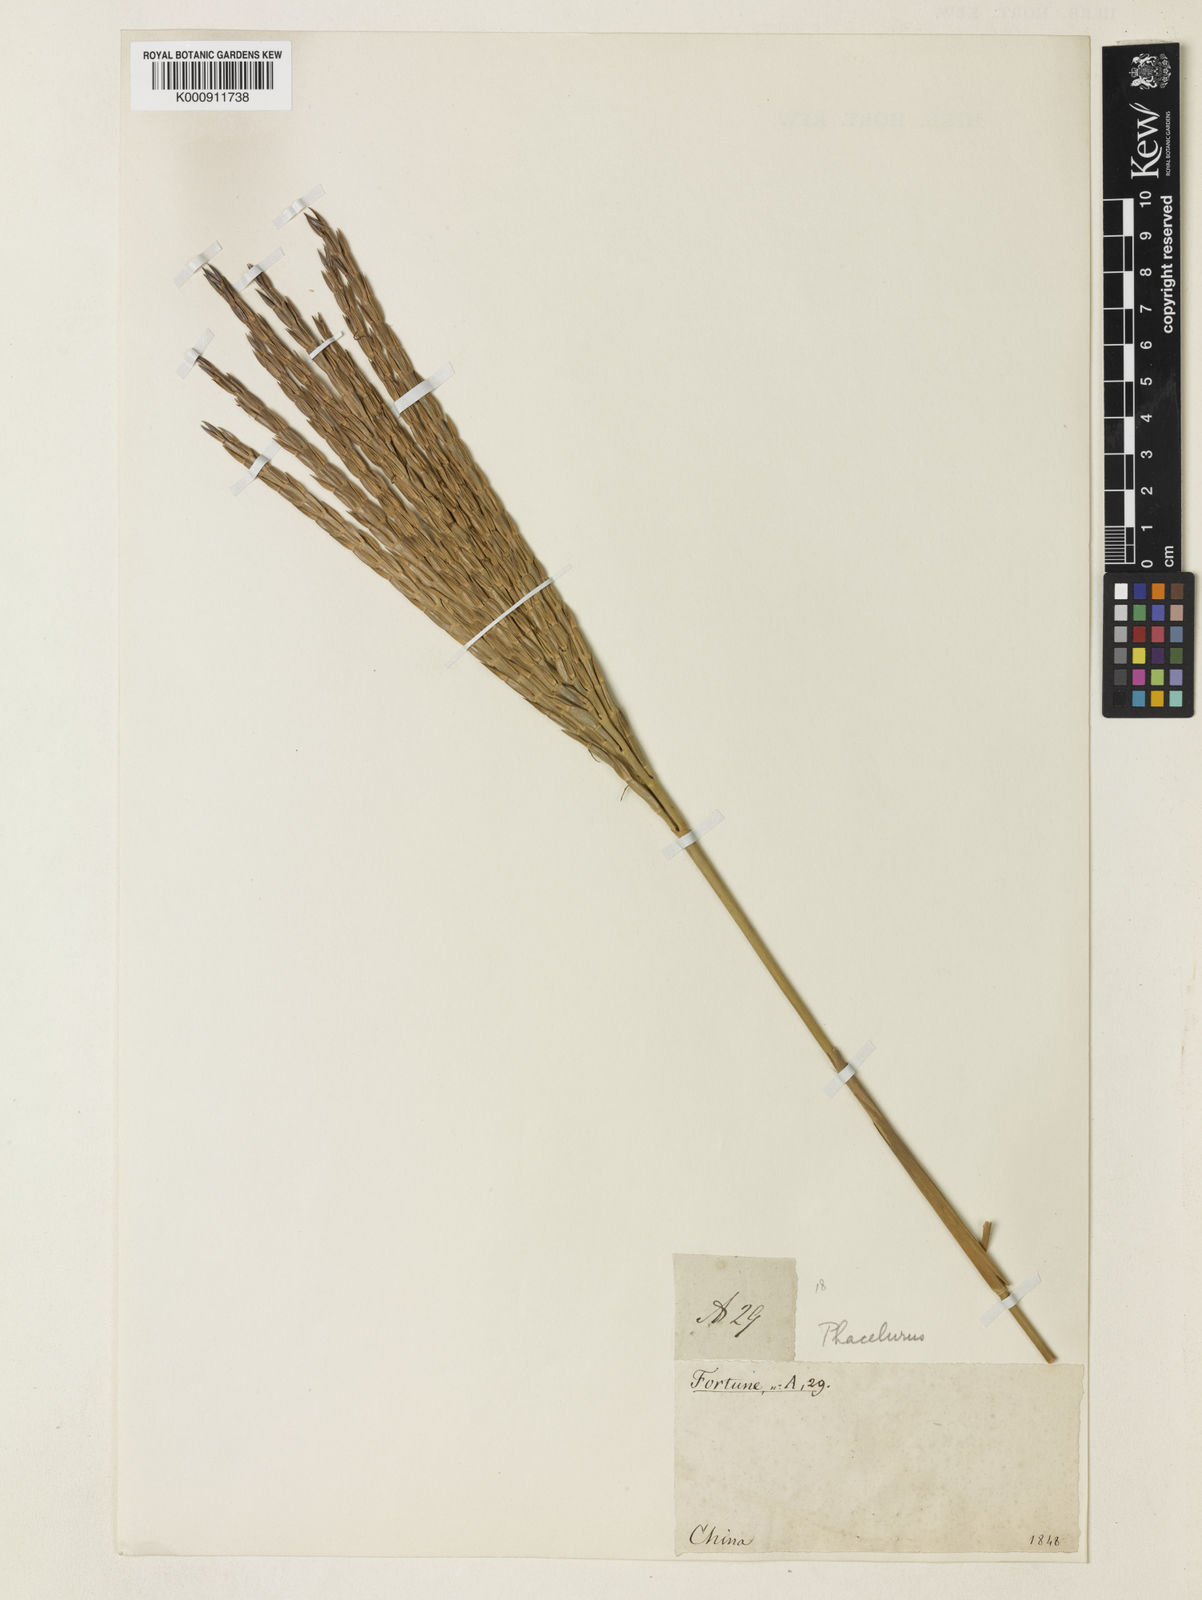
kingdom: Plantae
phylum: Tracheophyta
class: Liliopsida
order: Poales
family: Poaceae
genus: Phacelurus
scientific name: Phacelurus
